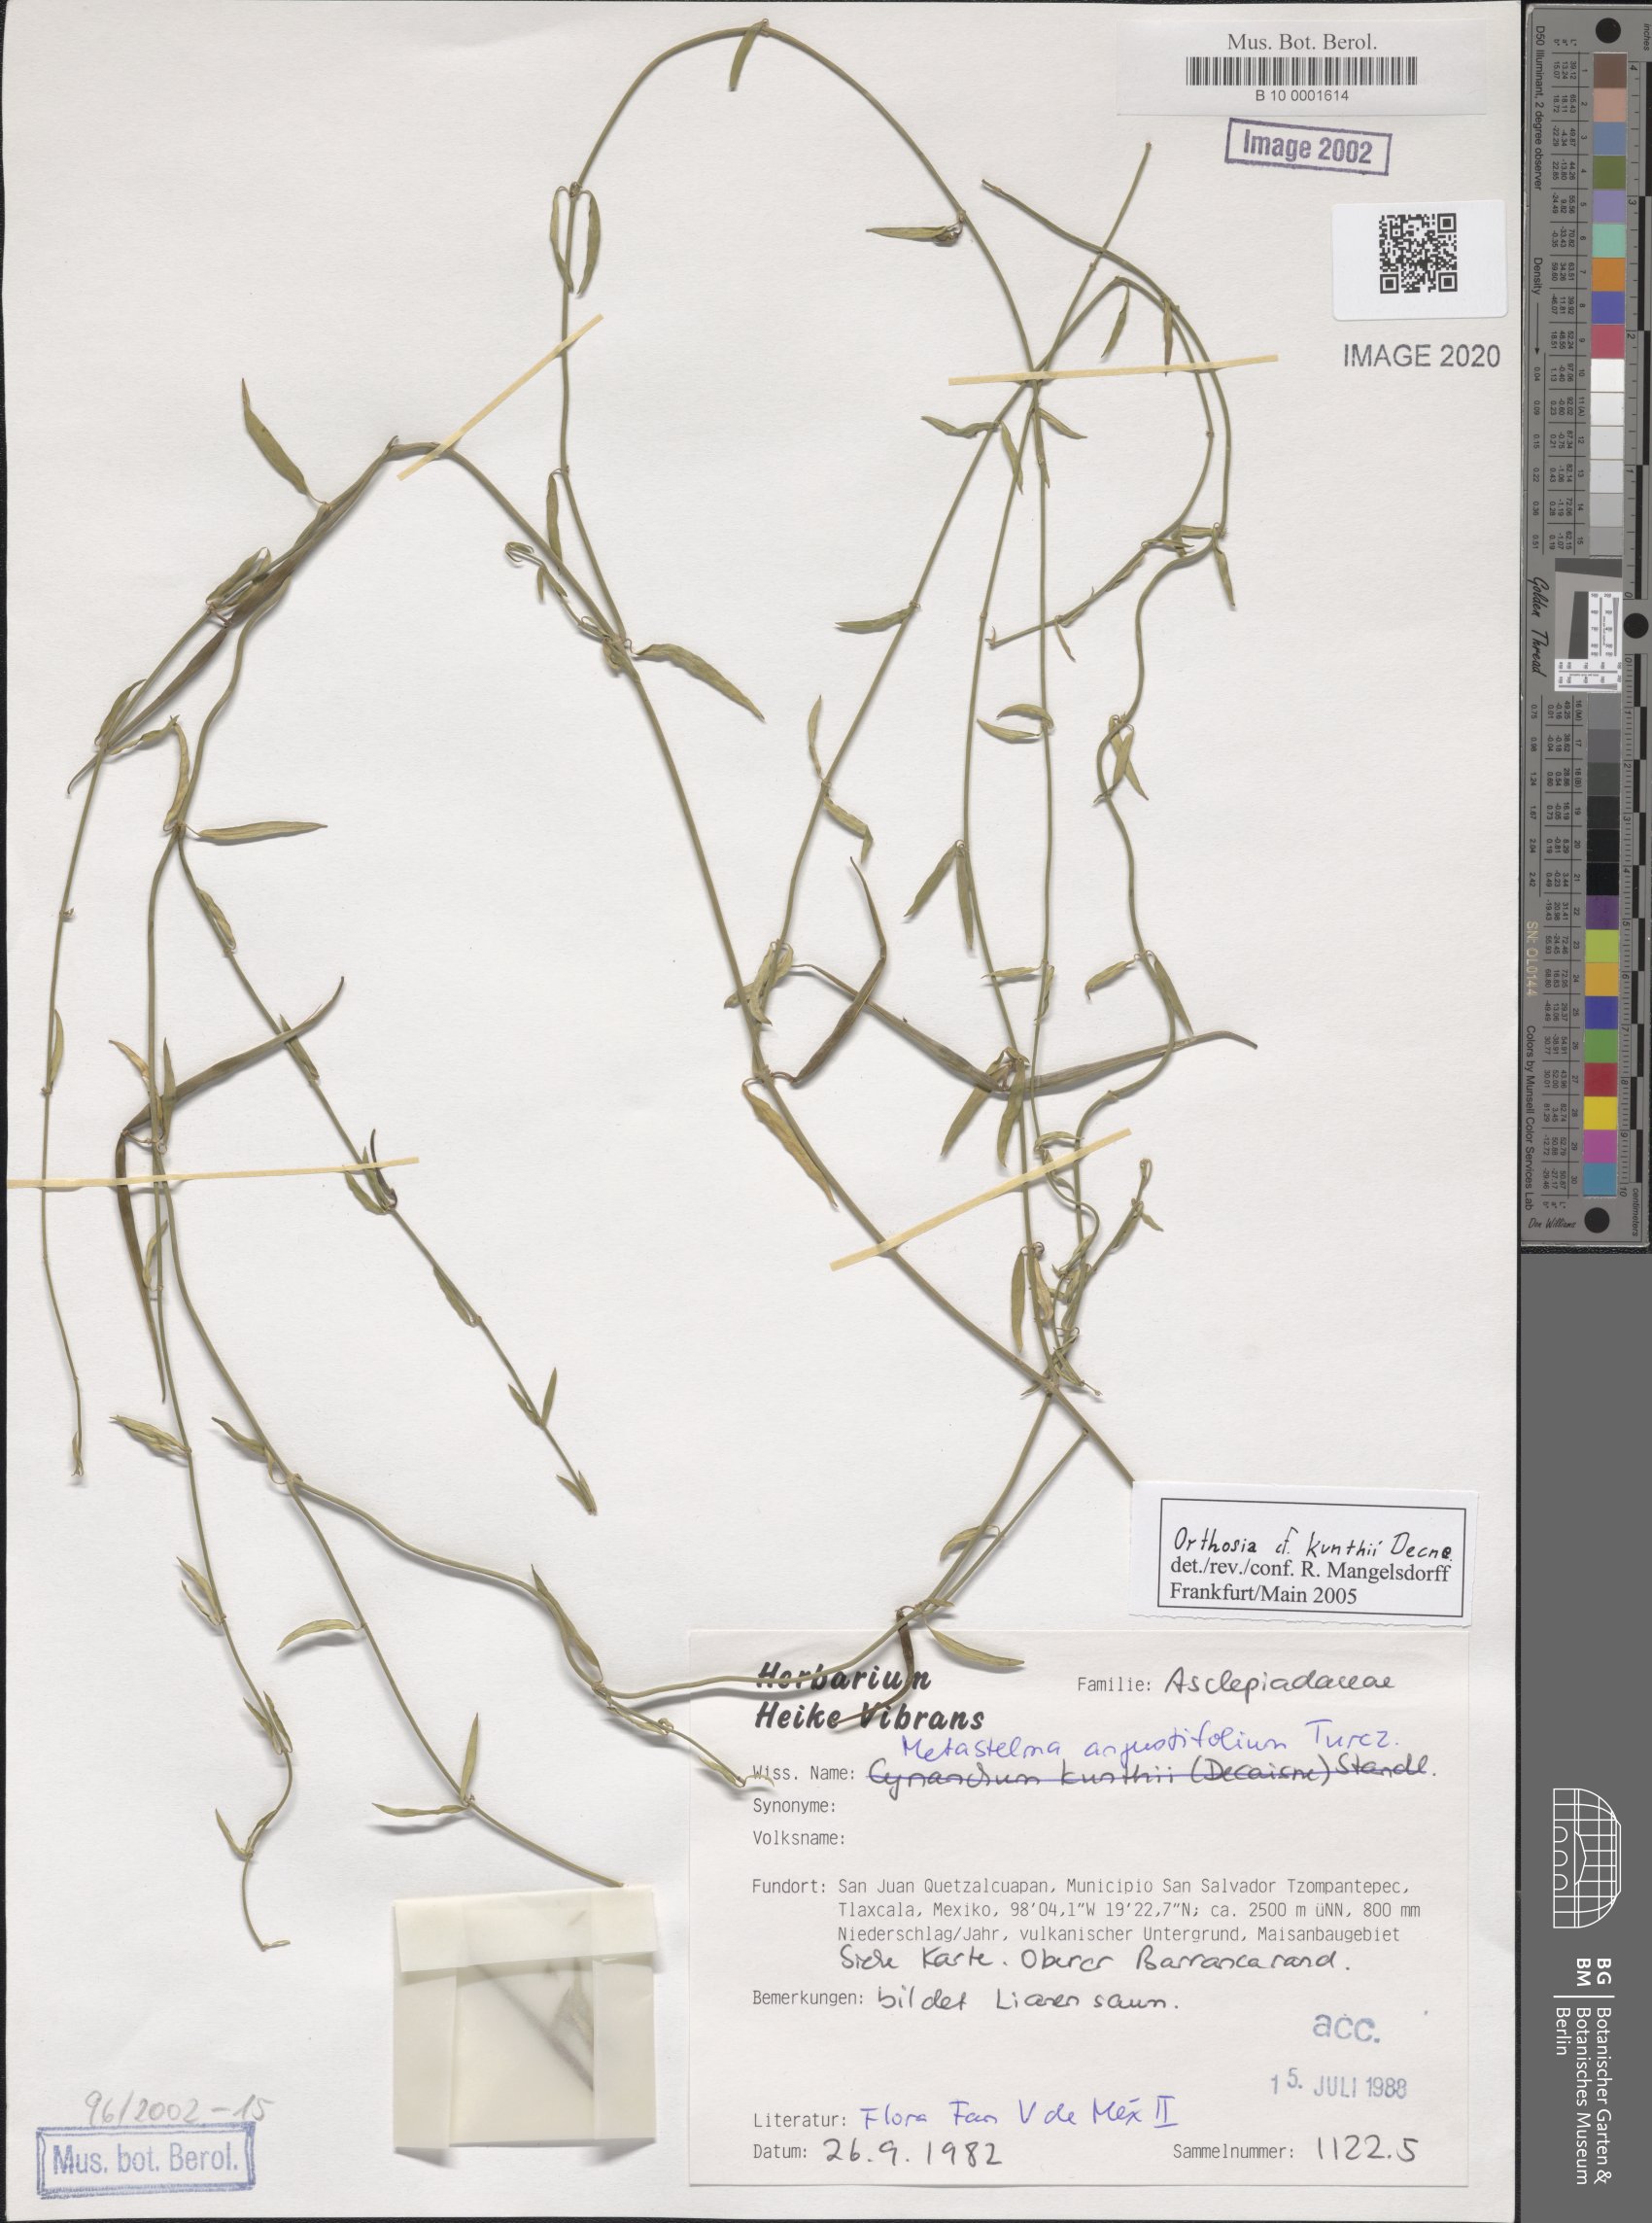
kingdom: Plantae
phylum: Tracheophyta
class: Magnoliopsida
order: Gentianales
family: Apocynaceae
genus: Orthosia
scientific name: Orthosia angustifolia
